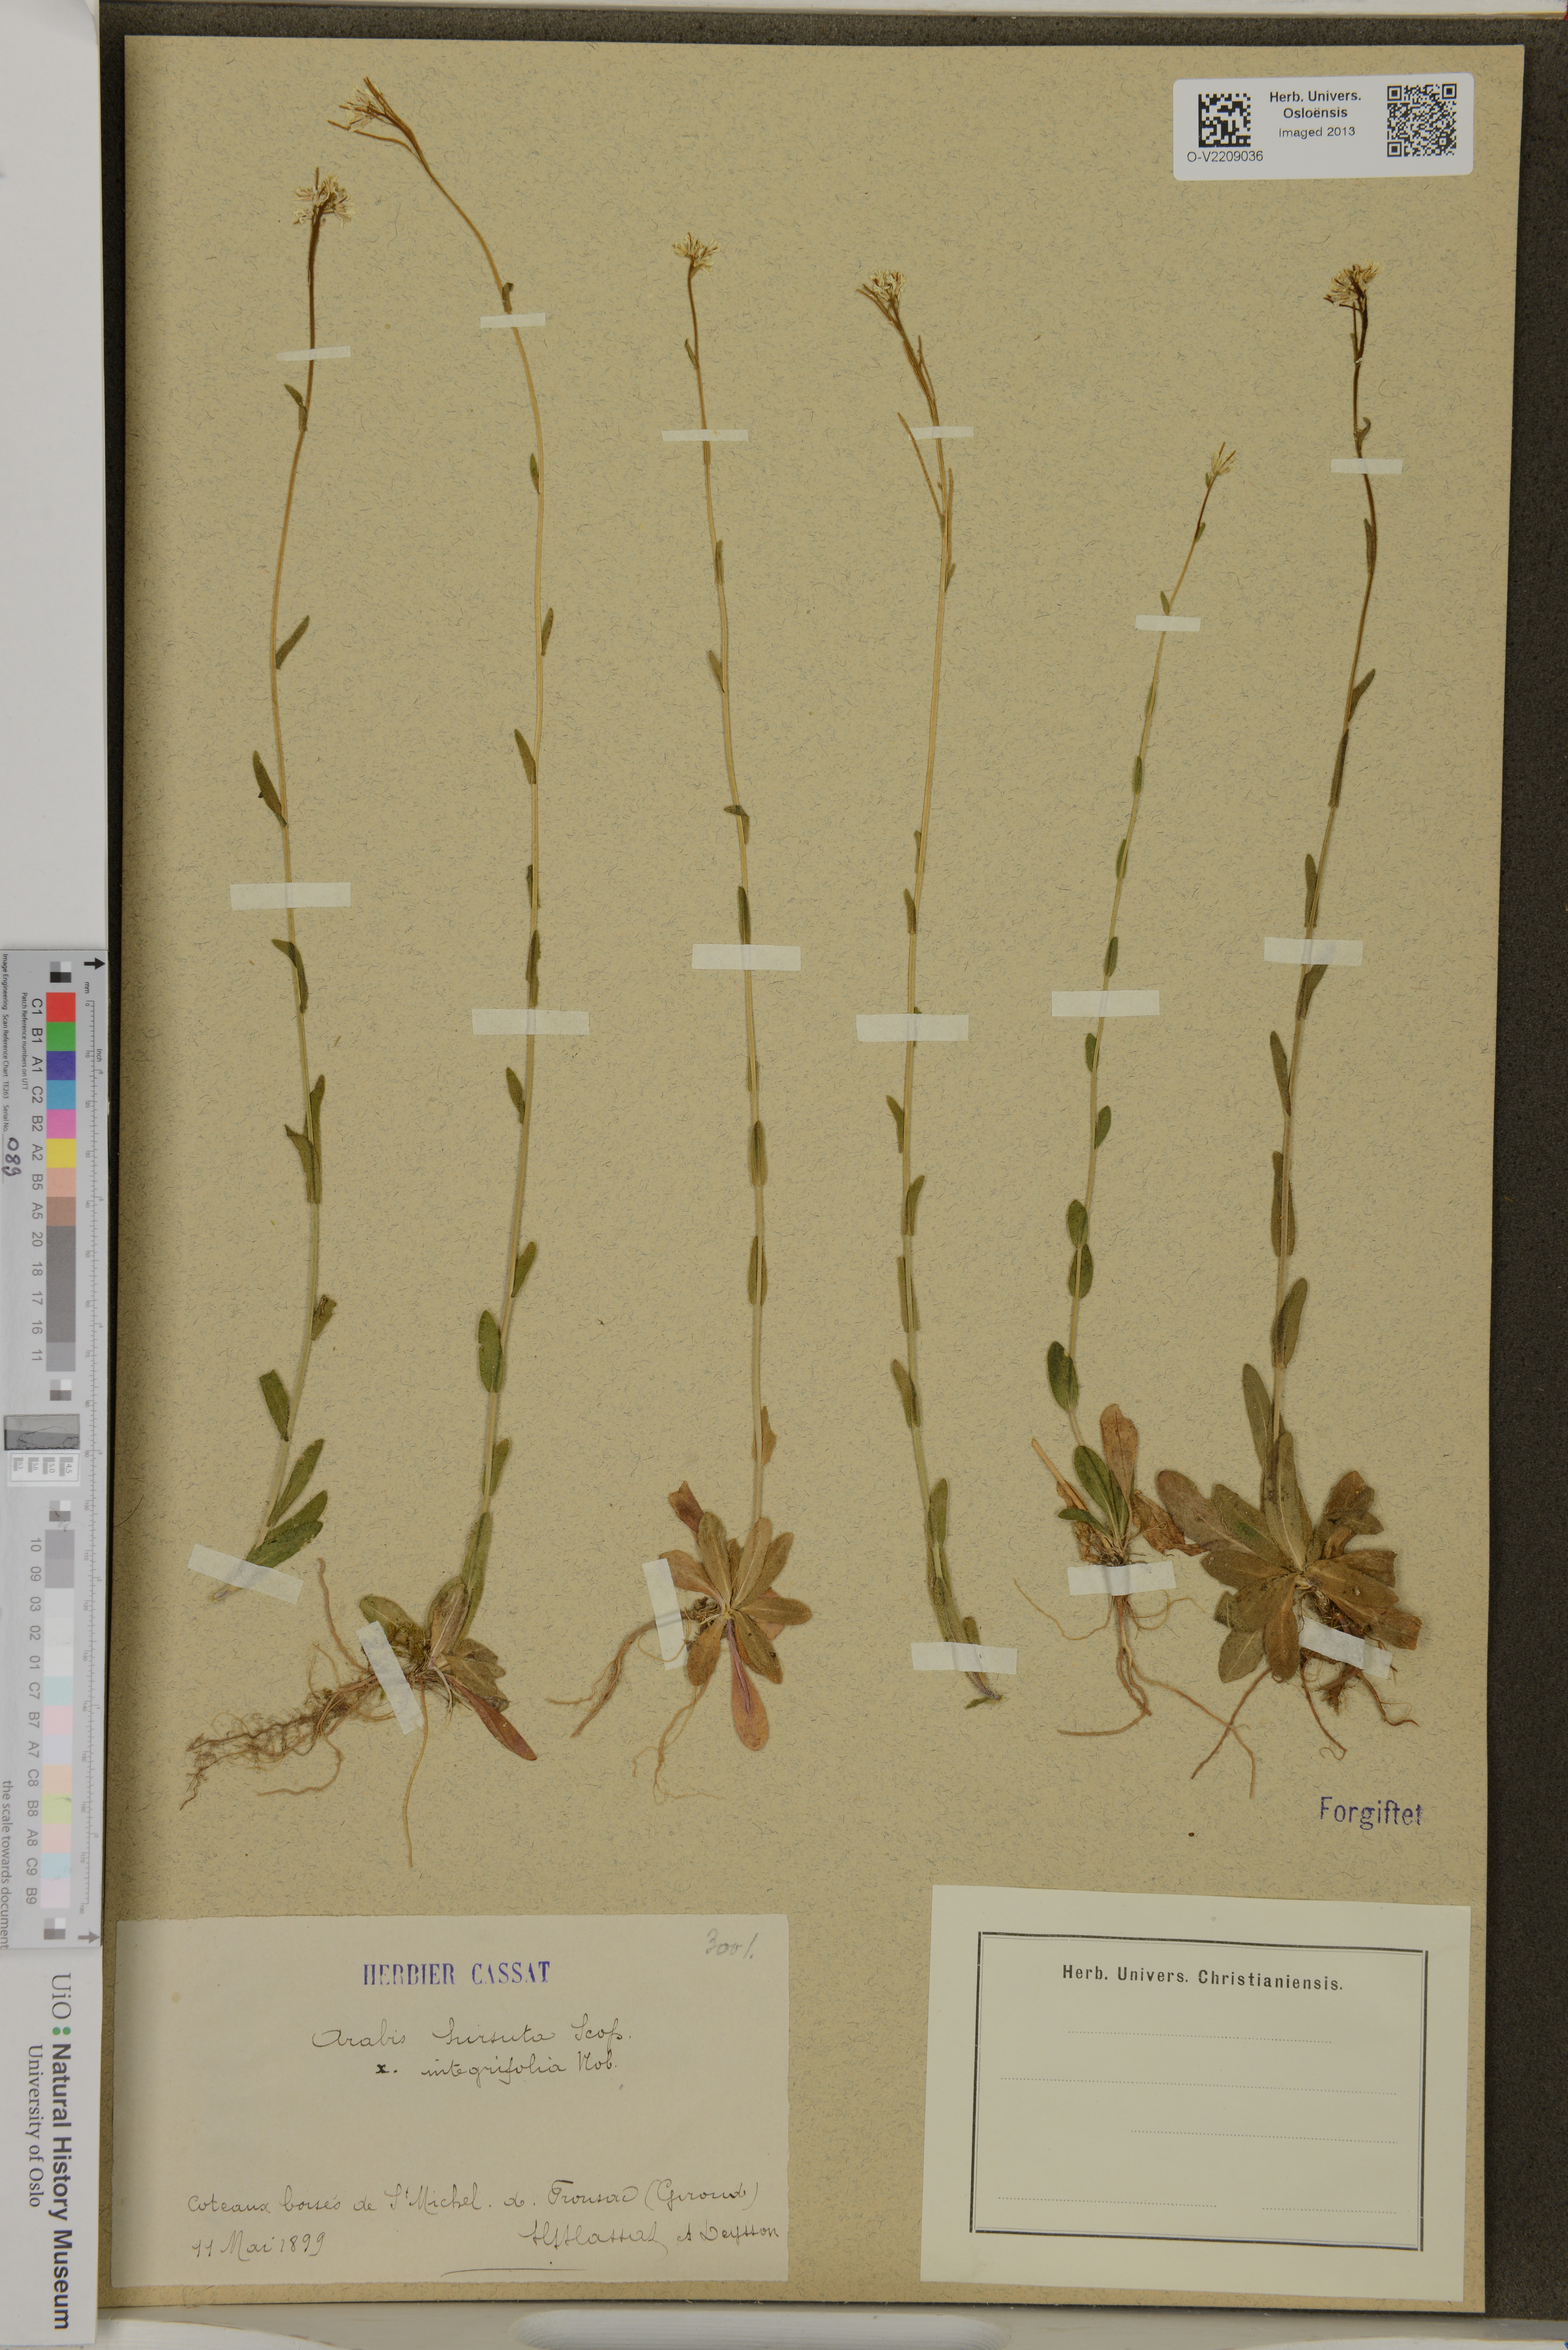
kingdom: Plantae
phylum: Tracheophyta
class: Magnoliopsida
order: Brassicales
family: Brassicaceae
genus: Arabis
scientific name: Arabis hirsuta
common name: Hairy rock-cress
